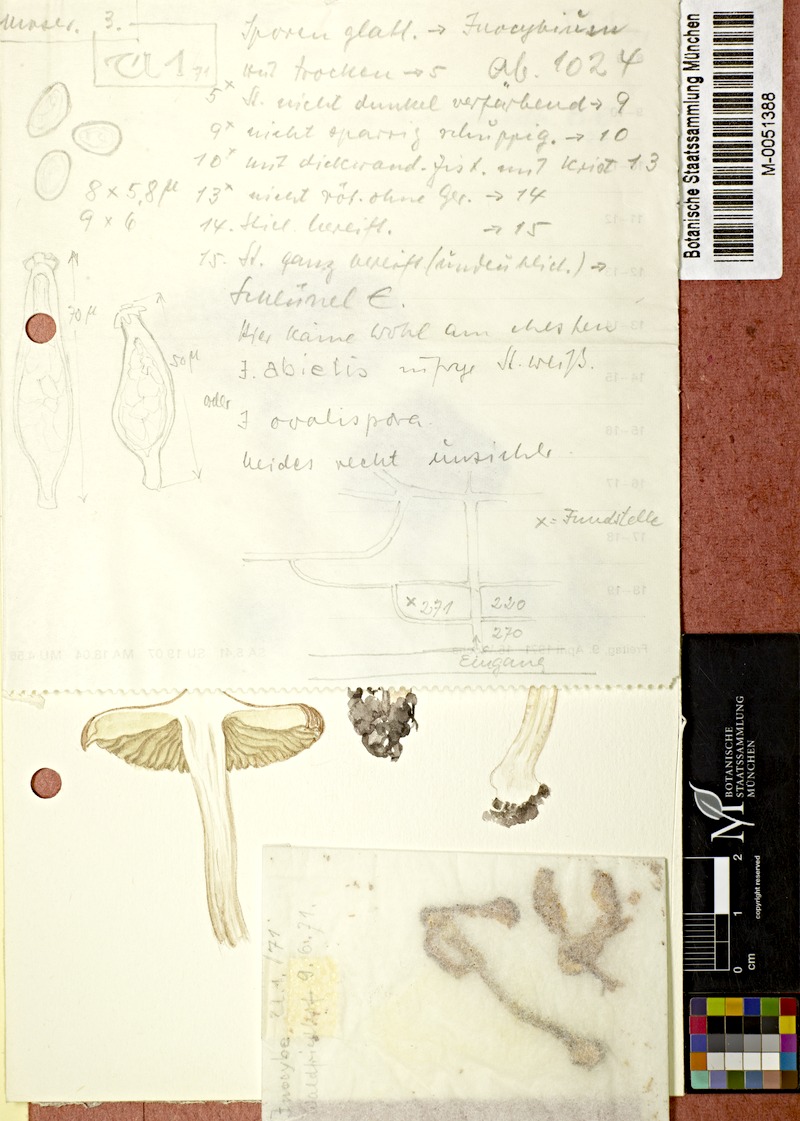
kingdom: Fungi
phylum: Basidiomycota
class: Agaricomycetes
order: Agaricales
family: Inocybaceae
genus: Inocybe
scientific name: Inocybe
